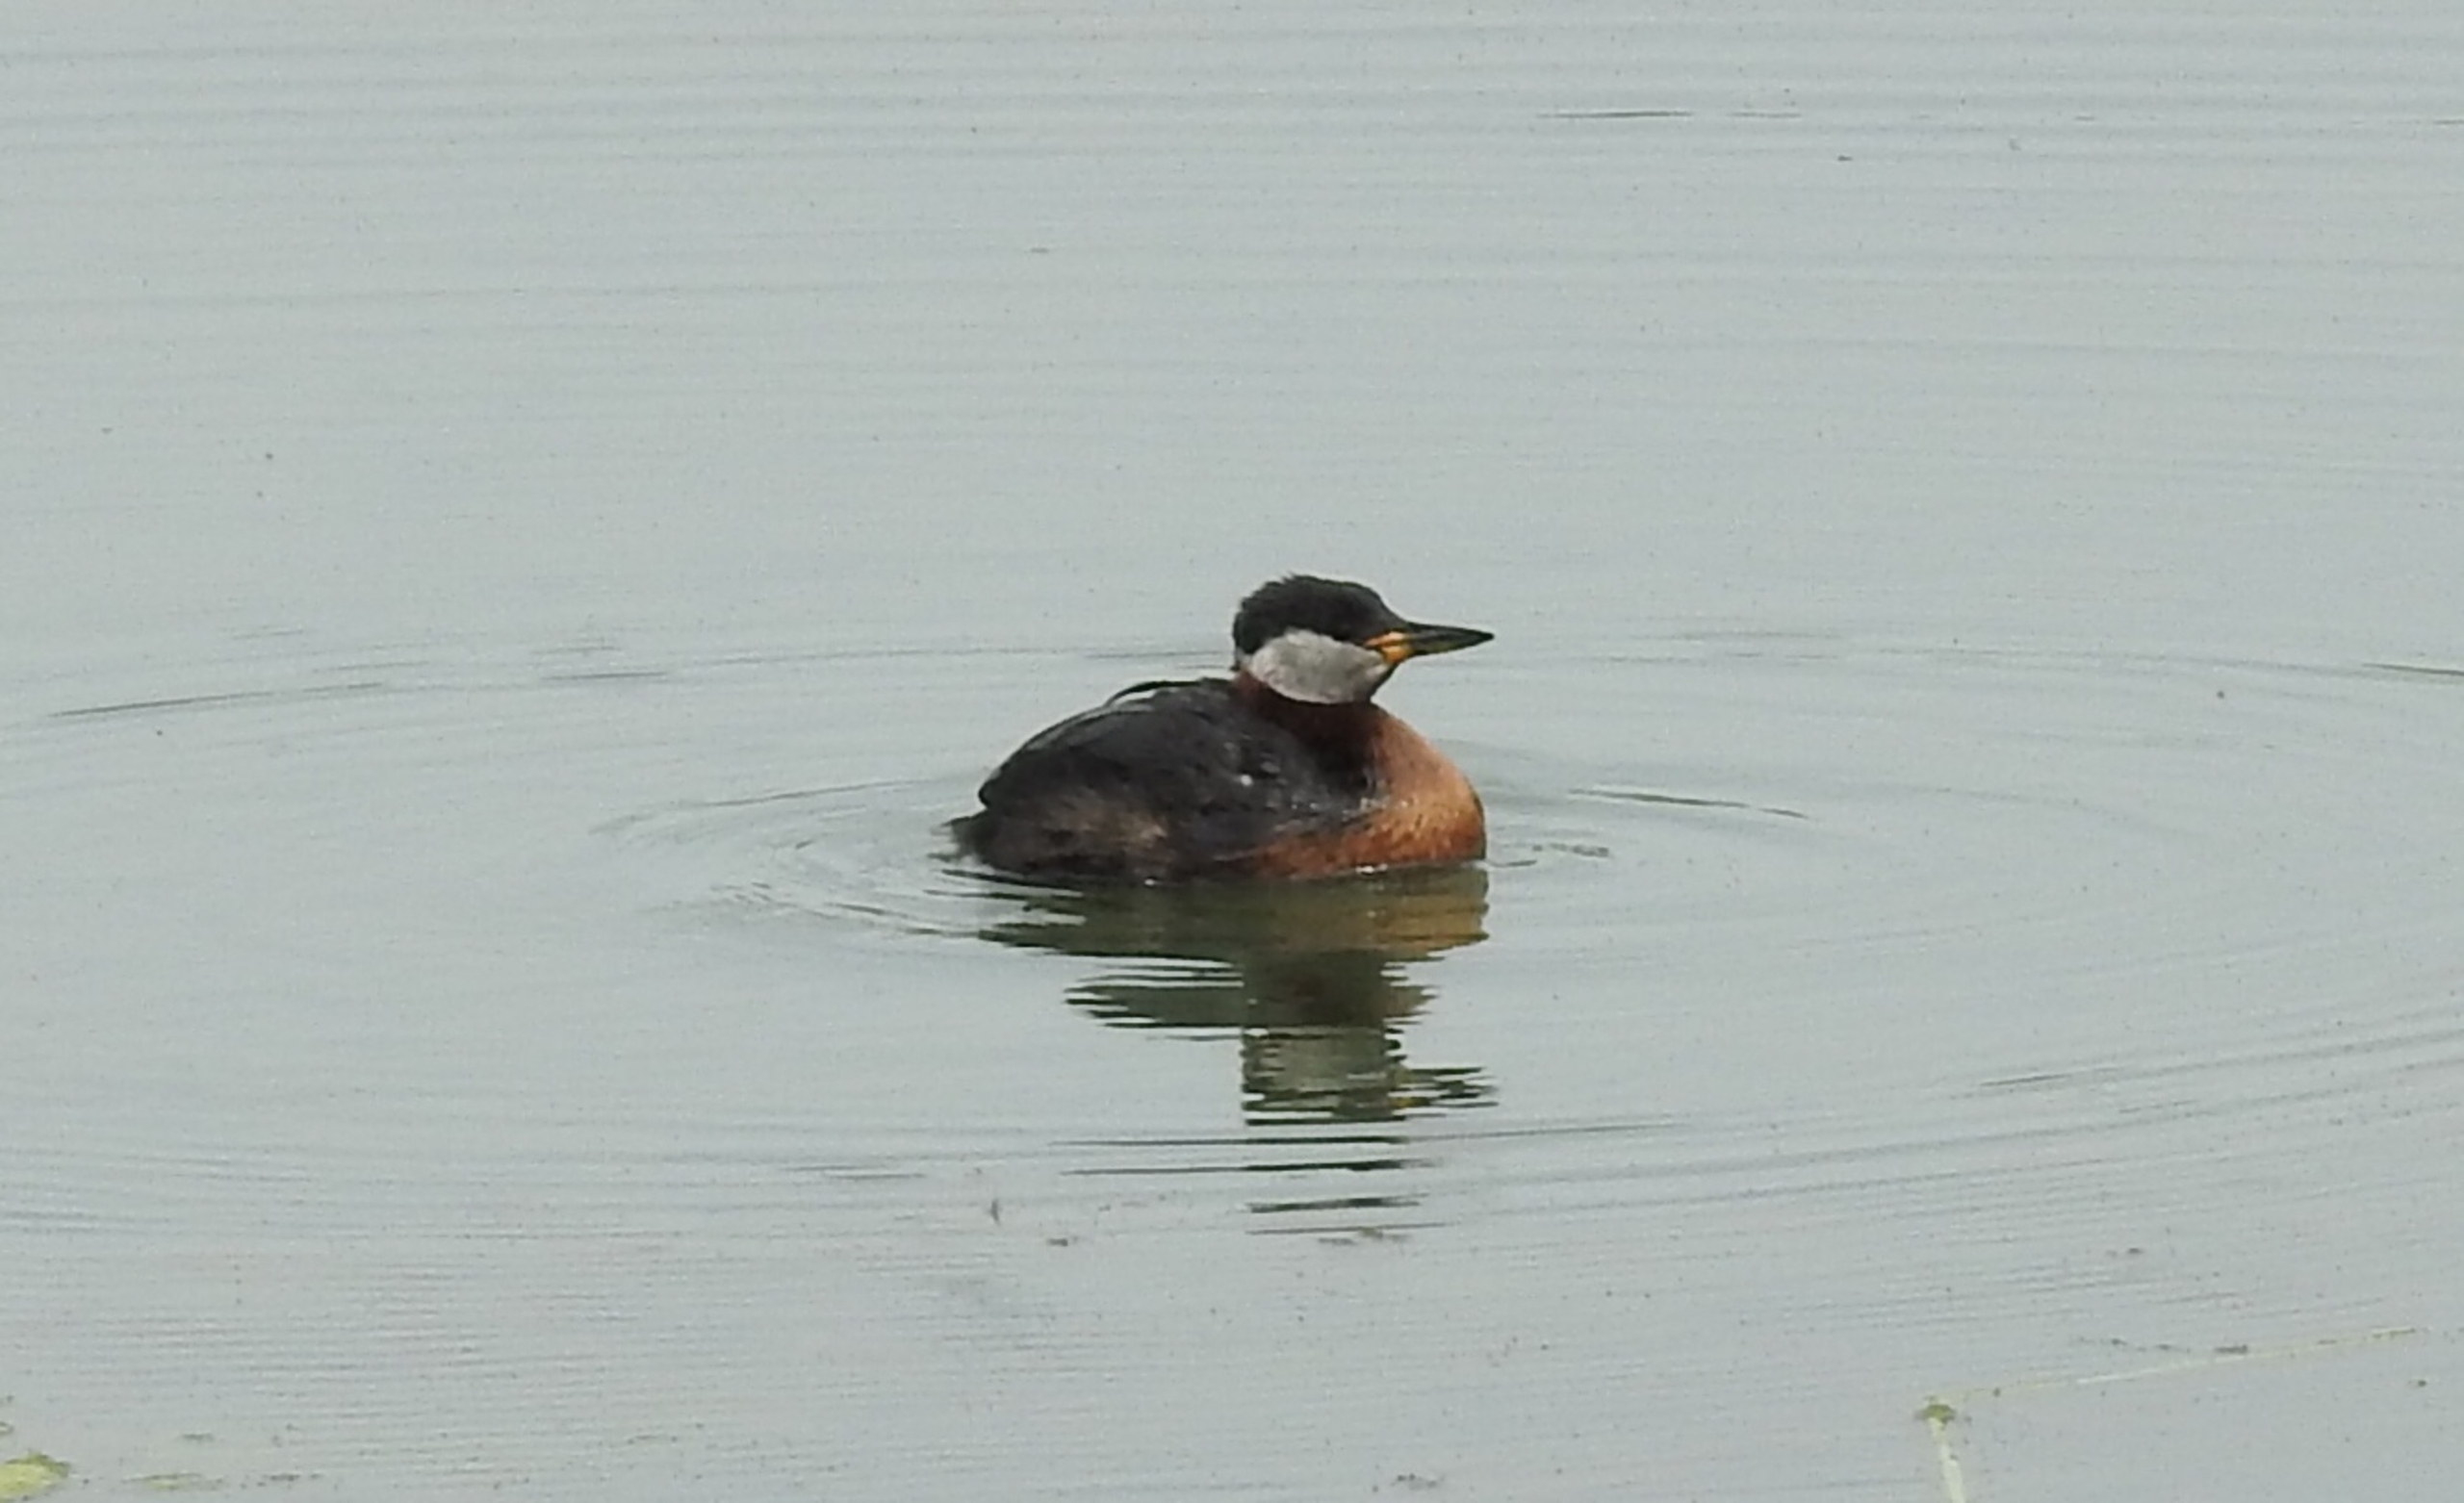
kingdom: Animalia
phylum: Chordata
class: Aves
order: Podicipediformes
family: Podicipedidae
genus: Podiceps
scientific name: Podiceps grisegena
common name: Gråstrubet lappedykker
